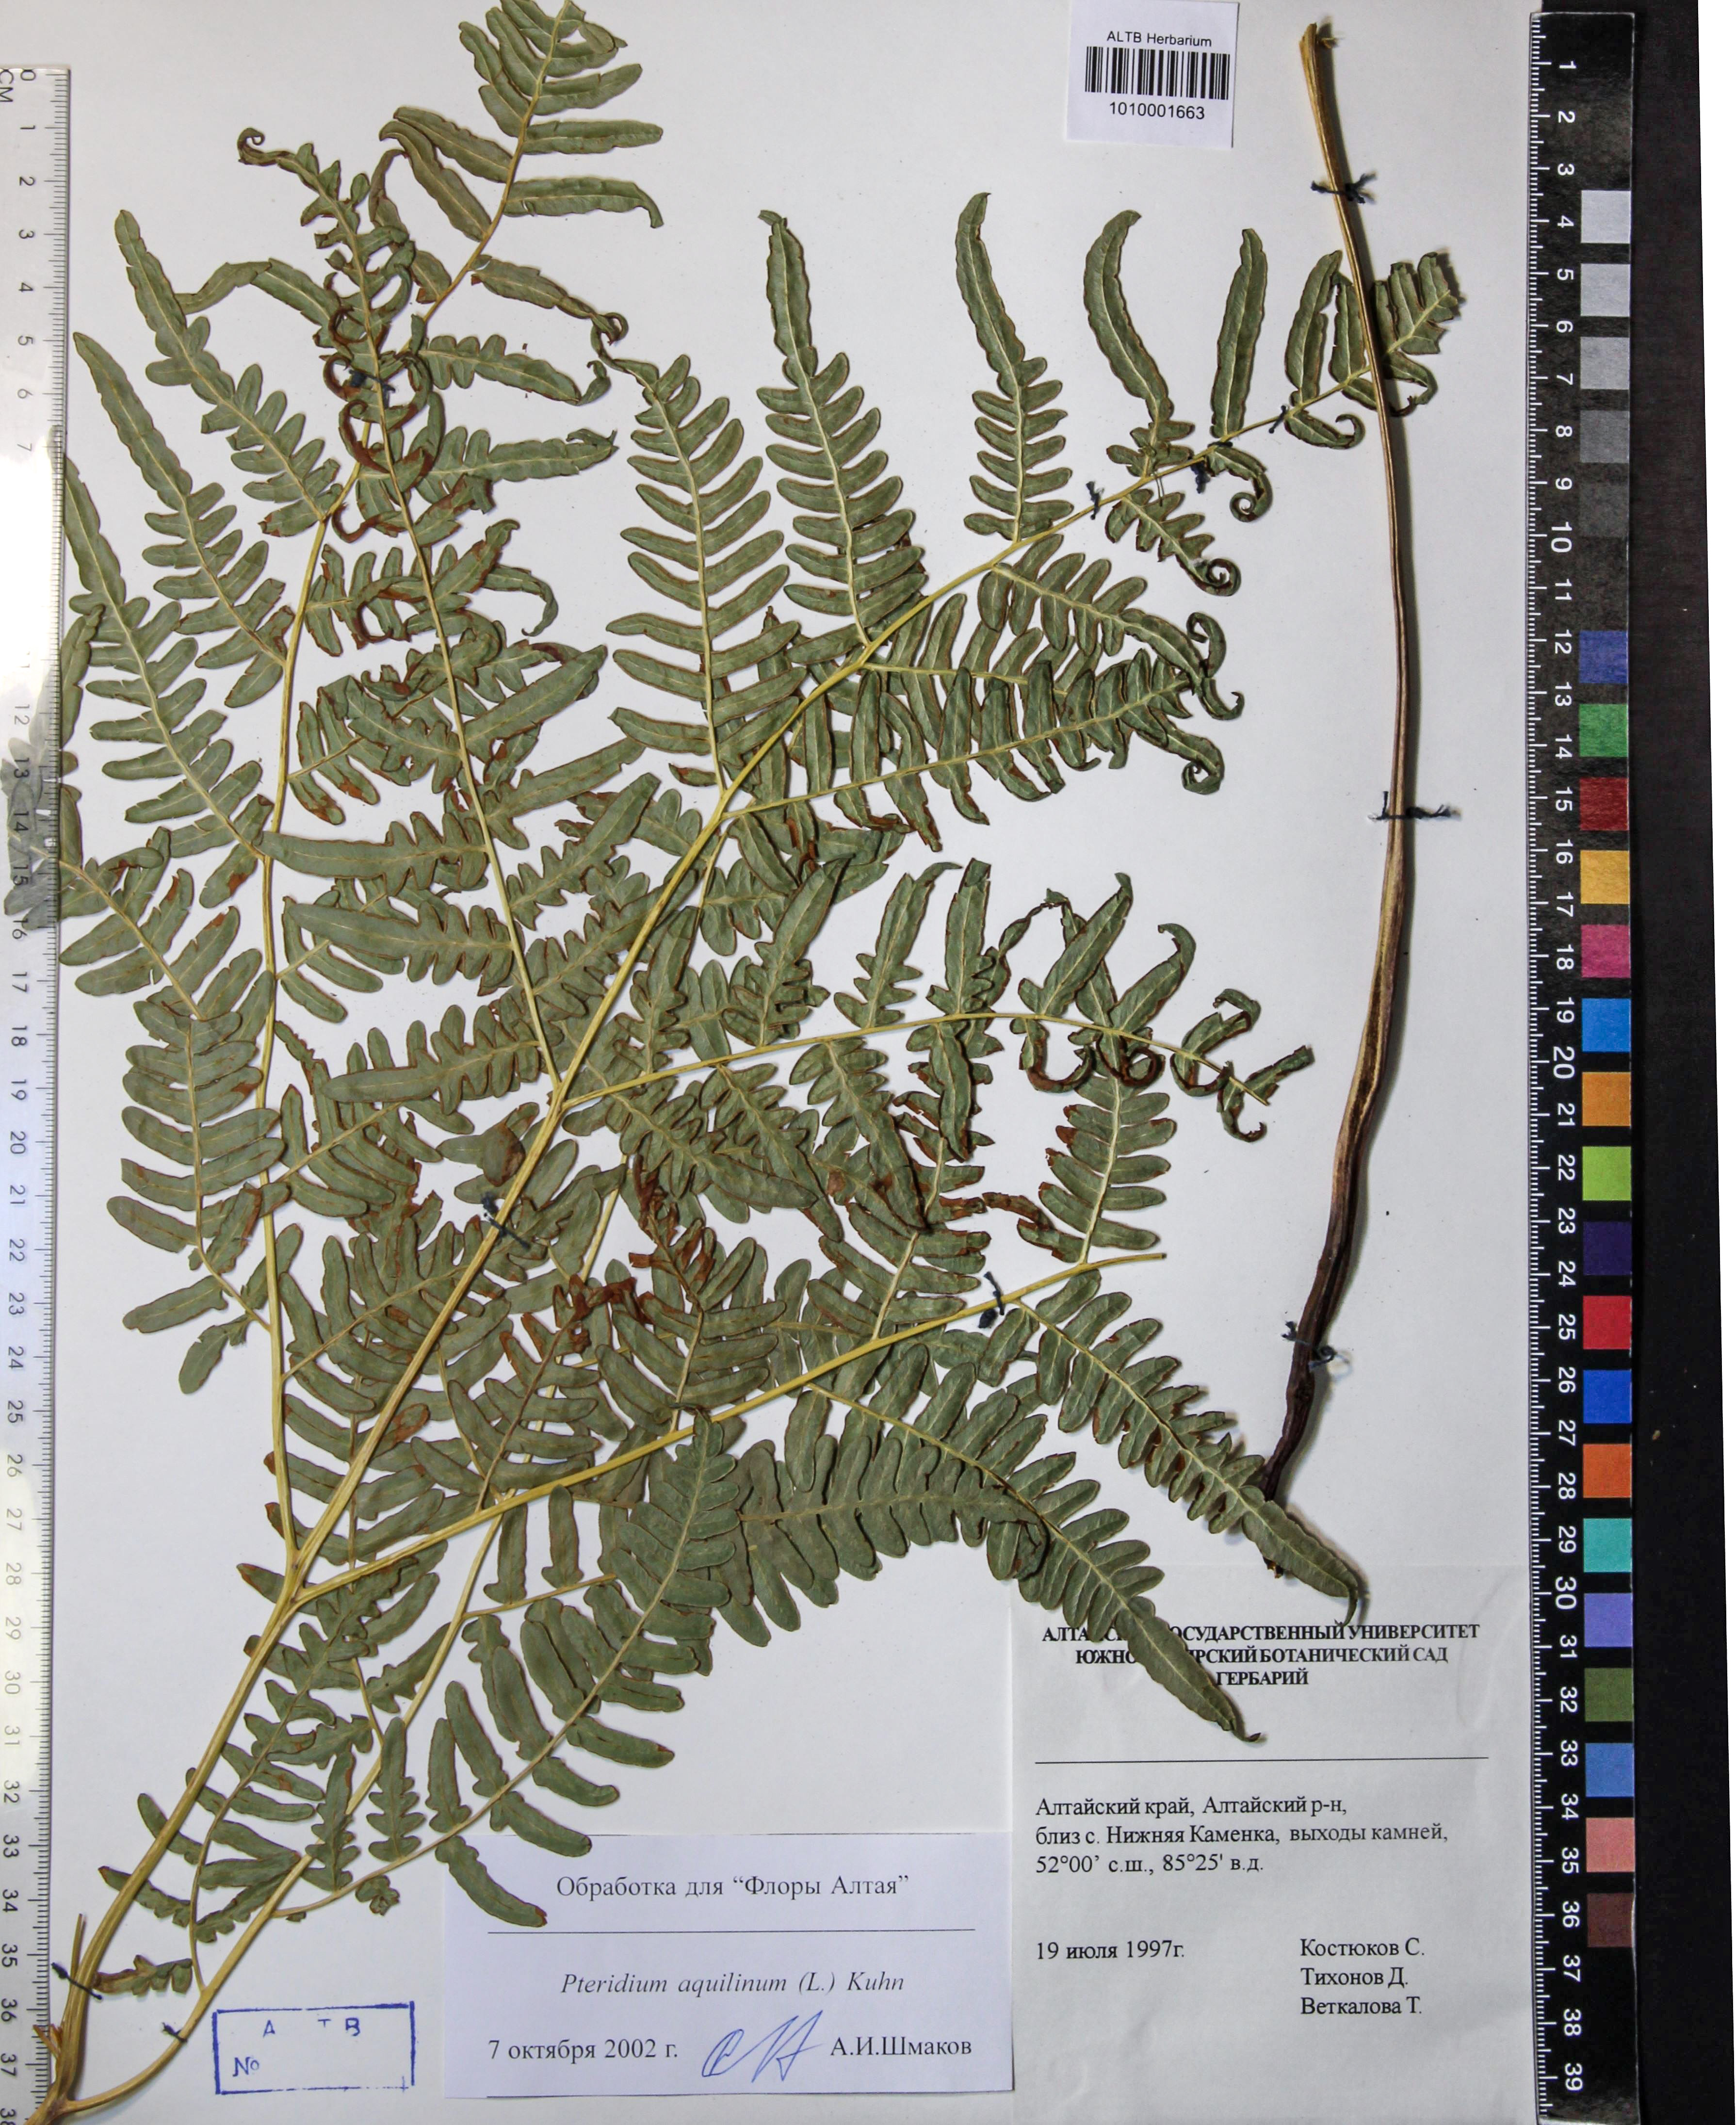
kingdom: Plantae
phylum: Tracheophyta
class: Polypodiopsida
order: Polypodiales
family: Dennstaedtiaceae
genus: Pteridium
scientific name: Pteridium aquilinum
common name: Bracken
